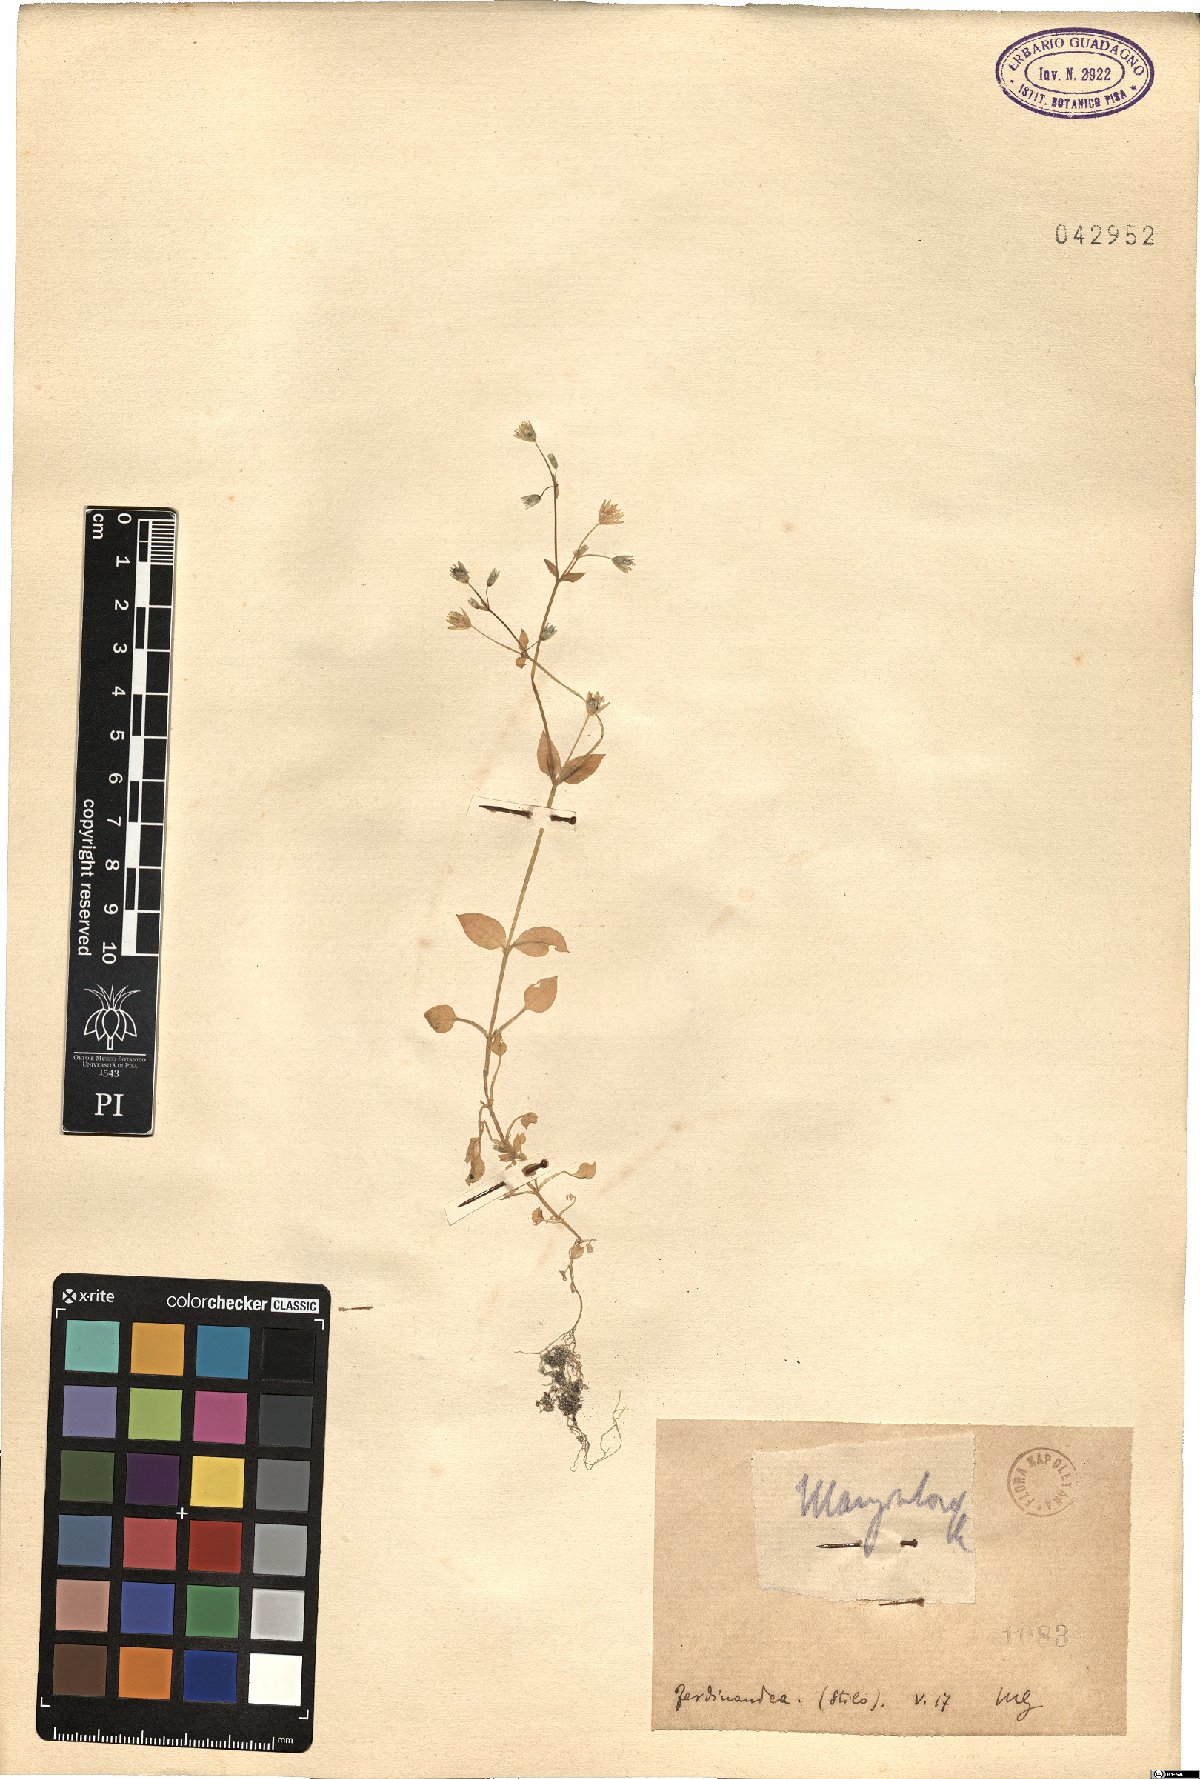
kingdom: Plantae
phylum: Tracheophyta
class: Magnoliopsida
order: Caryophyllales
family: Caryophyllaceae
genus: Stellaria
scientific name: Stellaria
